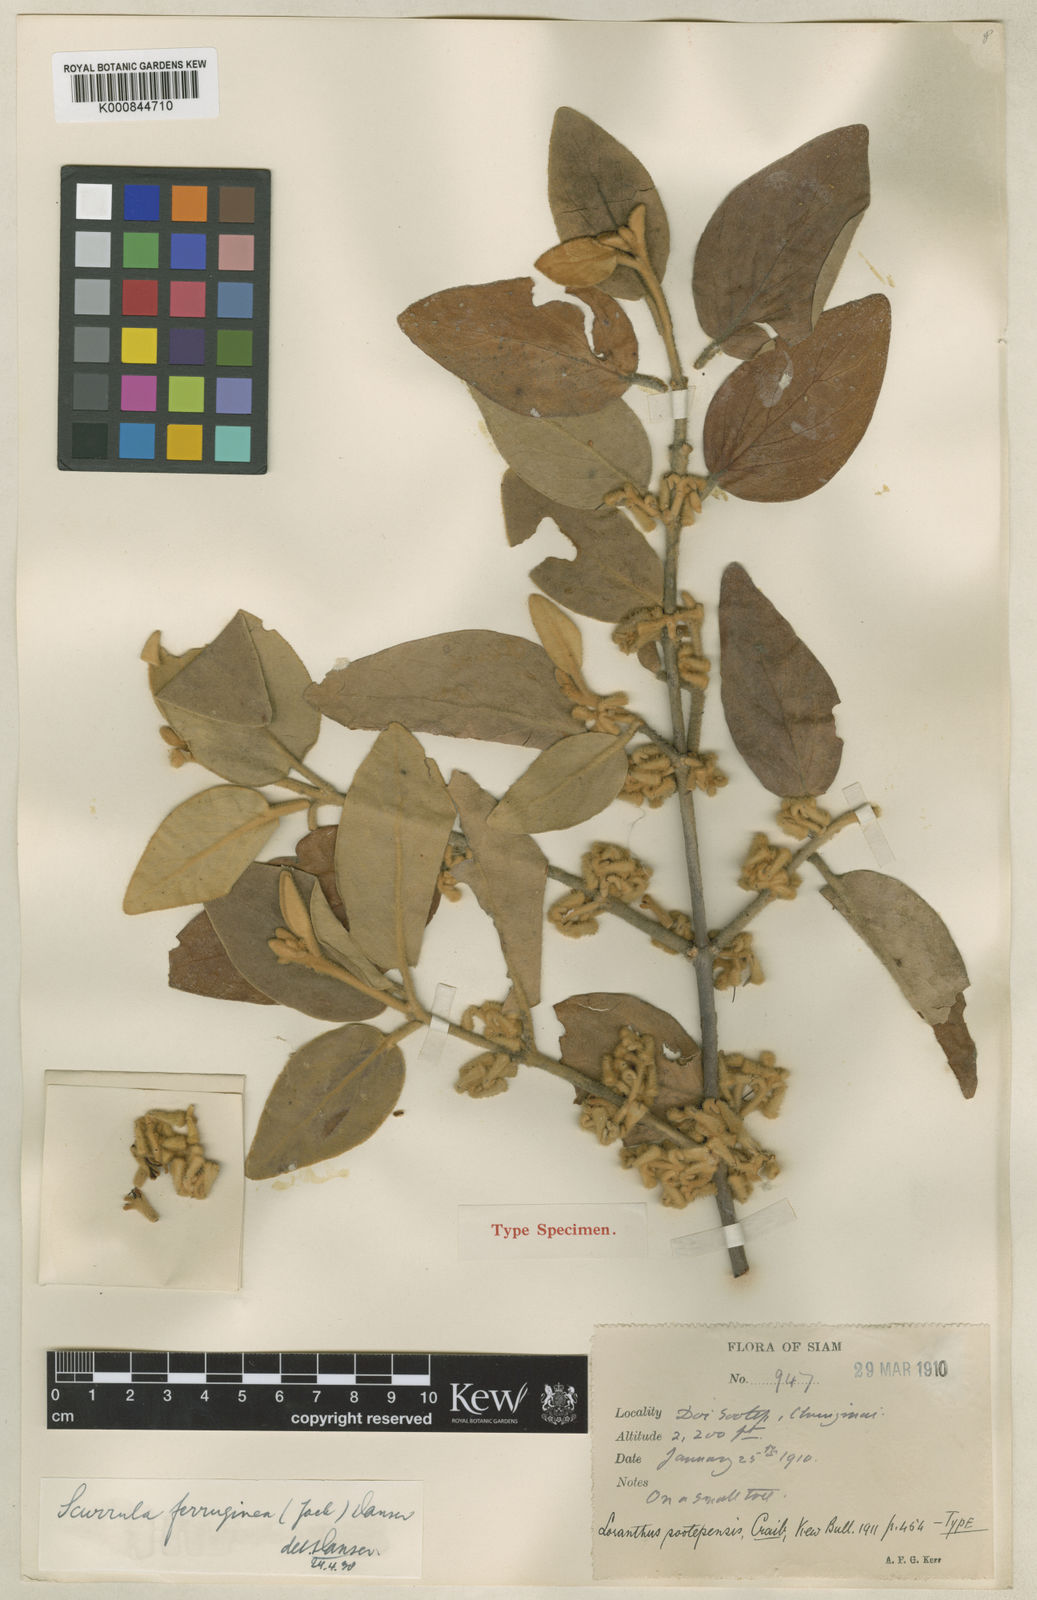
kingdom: Plantae
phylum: Tracheophyta
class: Magnoliopsida
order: Santalales
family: Loranthaceae
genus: Scurrula
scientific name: Scurrula ferruginea
